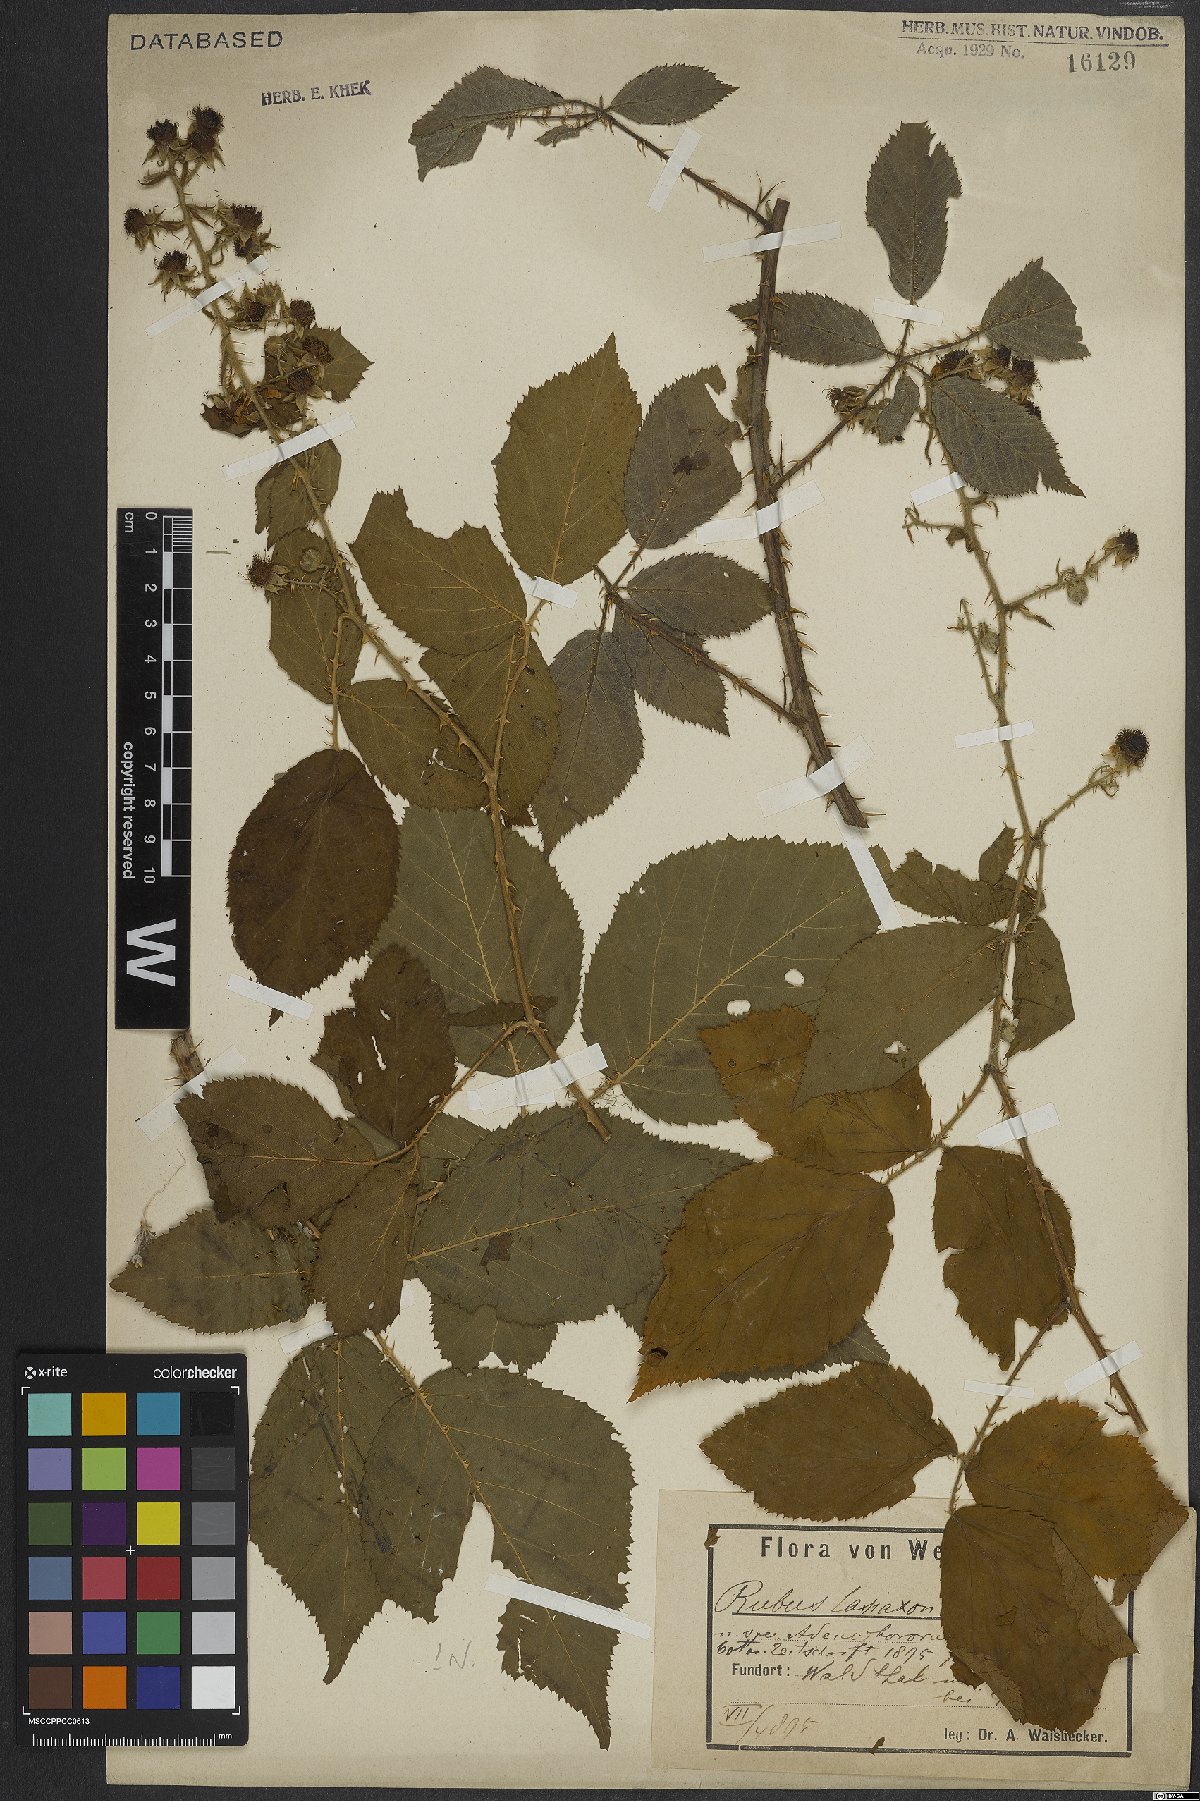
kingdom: Plantae
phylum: Tracheophyta
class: Magnoliopsida
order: Rosales
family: Rosaceae
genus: Rubus
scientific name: Rubus ferox
